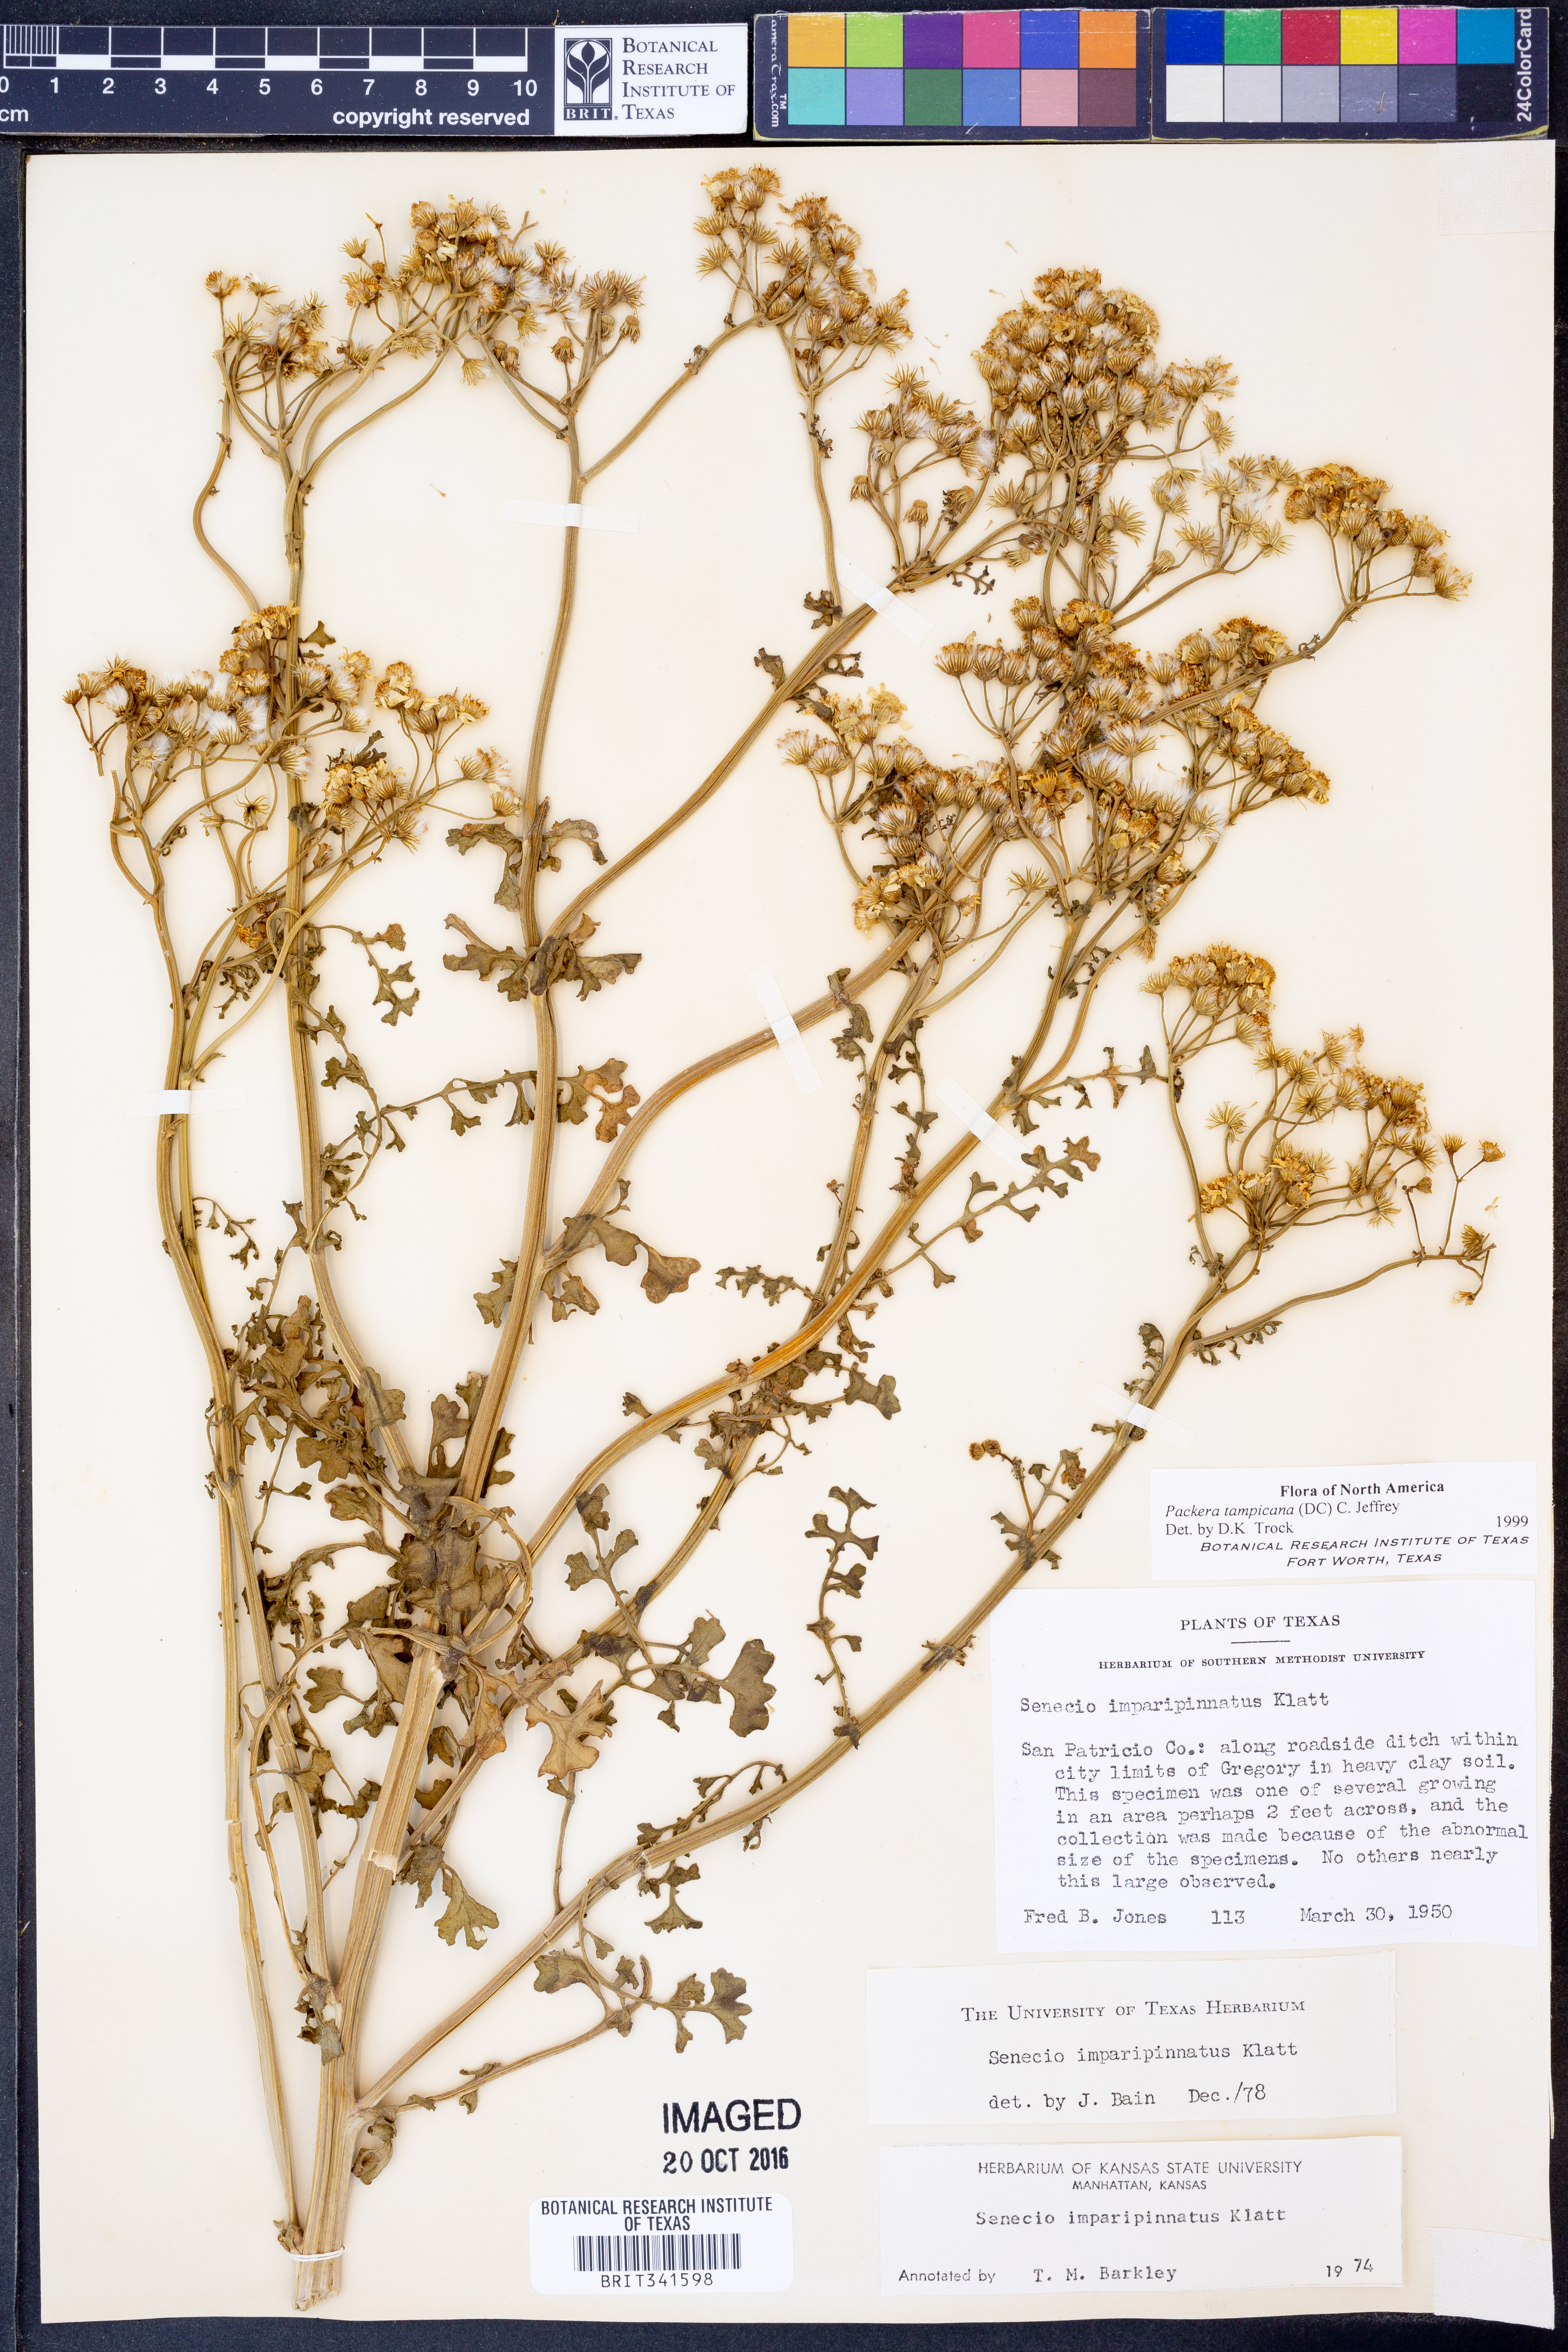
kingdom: Plantae
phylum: Tracheophyta
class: Magnoliopsida
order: Asterales
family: Asteraceae
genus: Packera
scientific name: Packera tampicana
